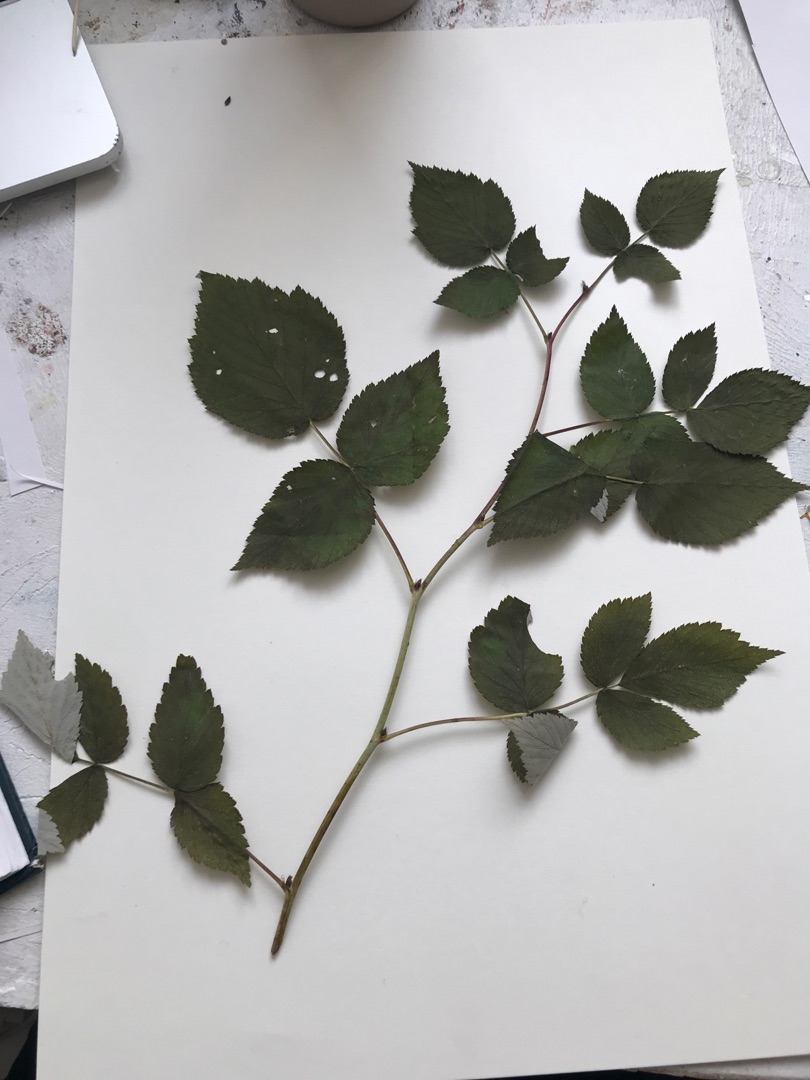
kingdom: Plantae
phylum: Tracheophyta
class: Magnoliopsida
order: Rosales
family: Rosaceae
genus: Rubus
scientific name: Rubus idaeus
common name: Hindbær
